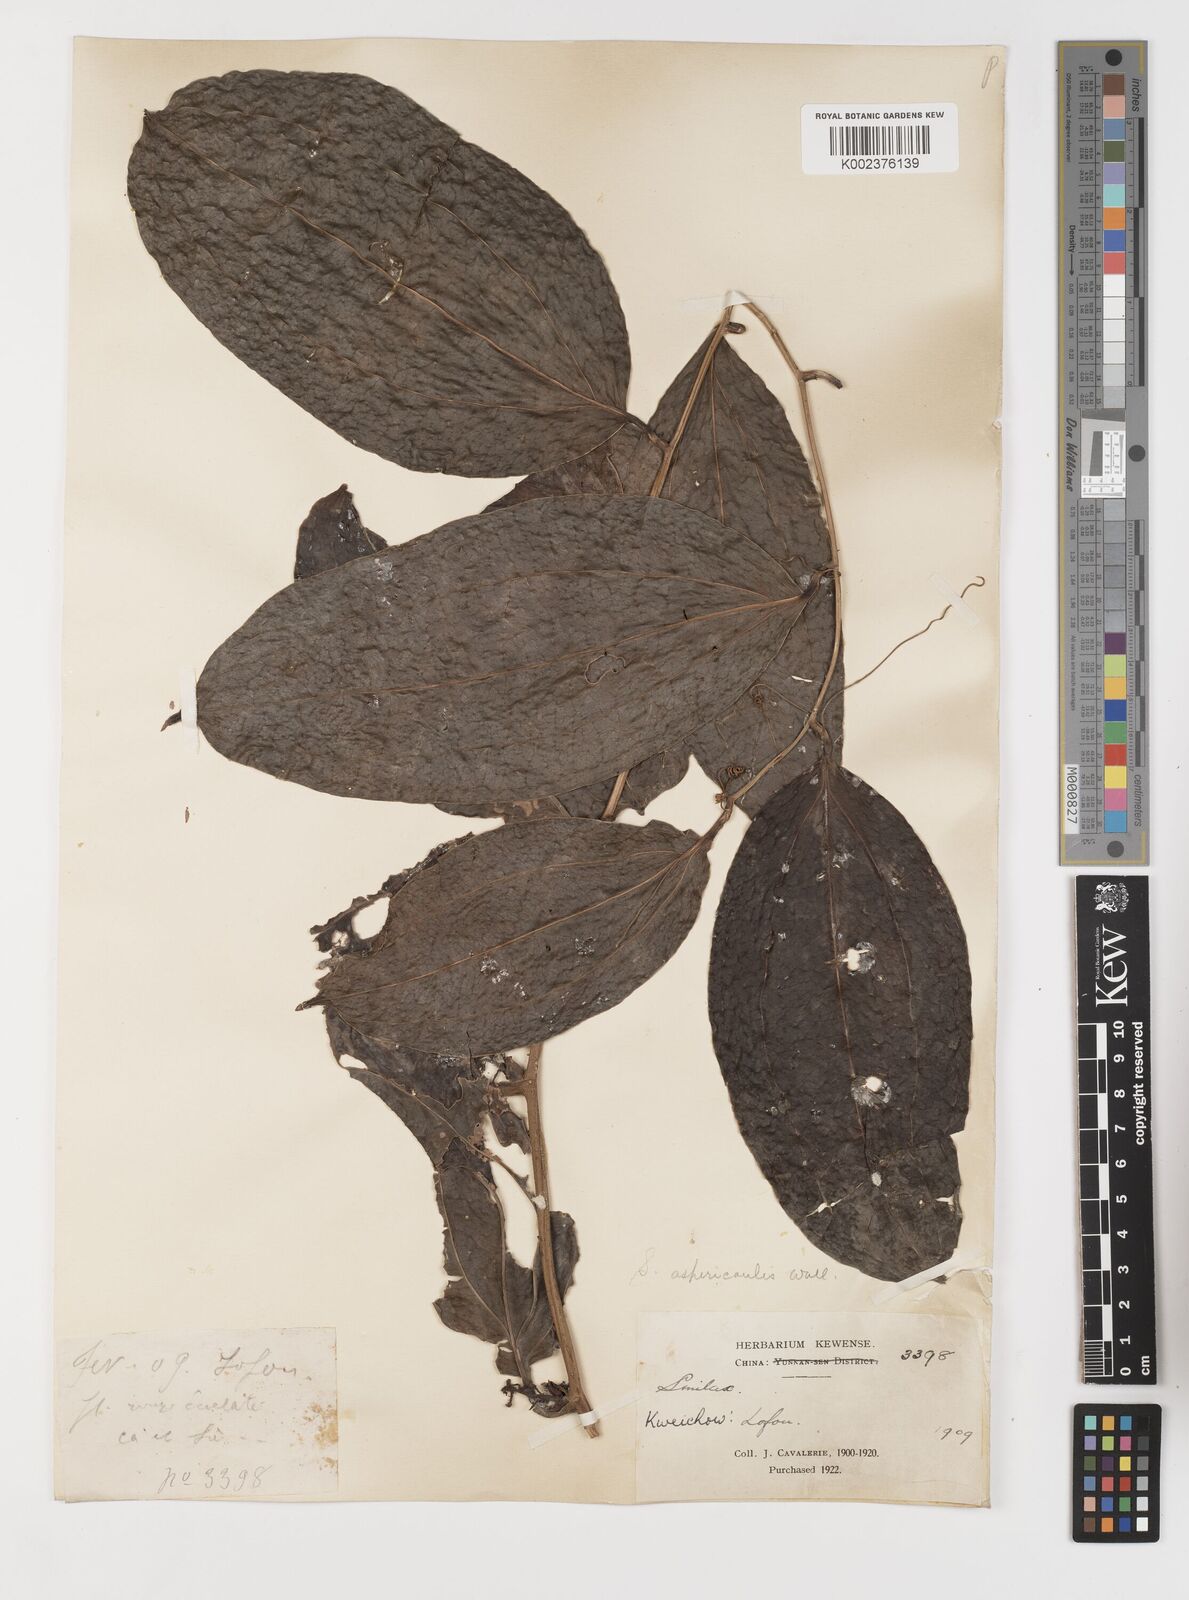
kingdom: Plantae
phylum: Tracheophyta
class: Liliopsida
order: Liliales
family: Smilacaceae
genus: Smilax
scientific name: Smilax aspericaulis
